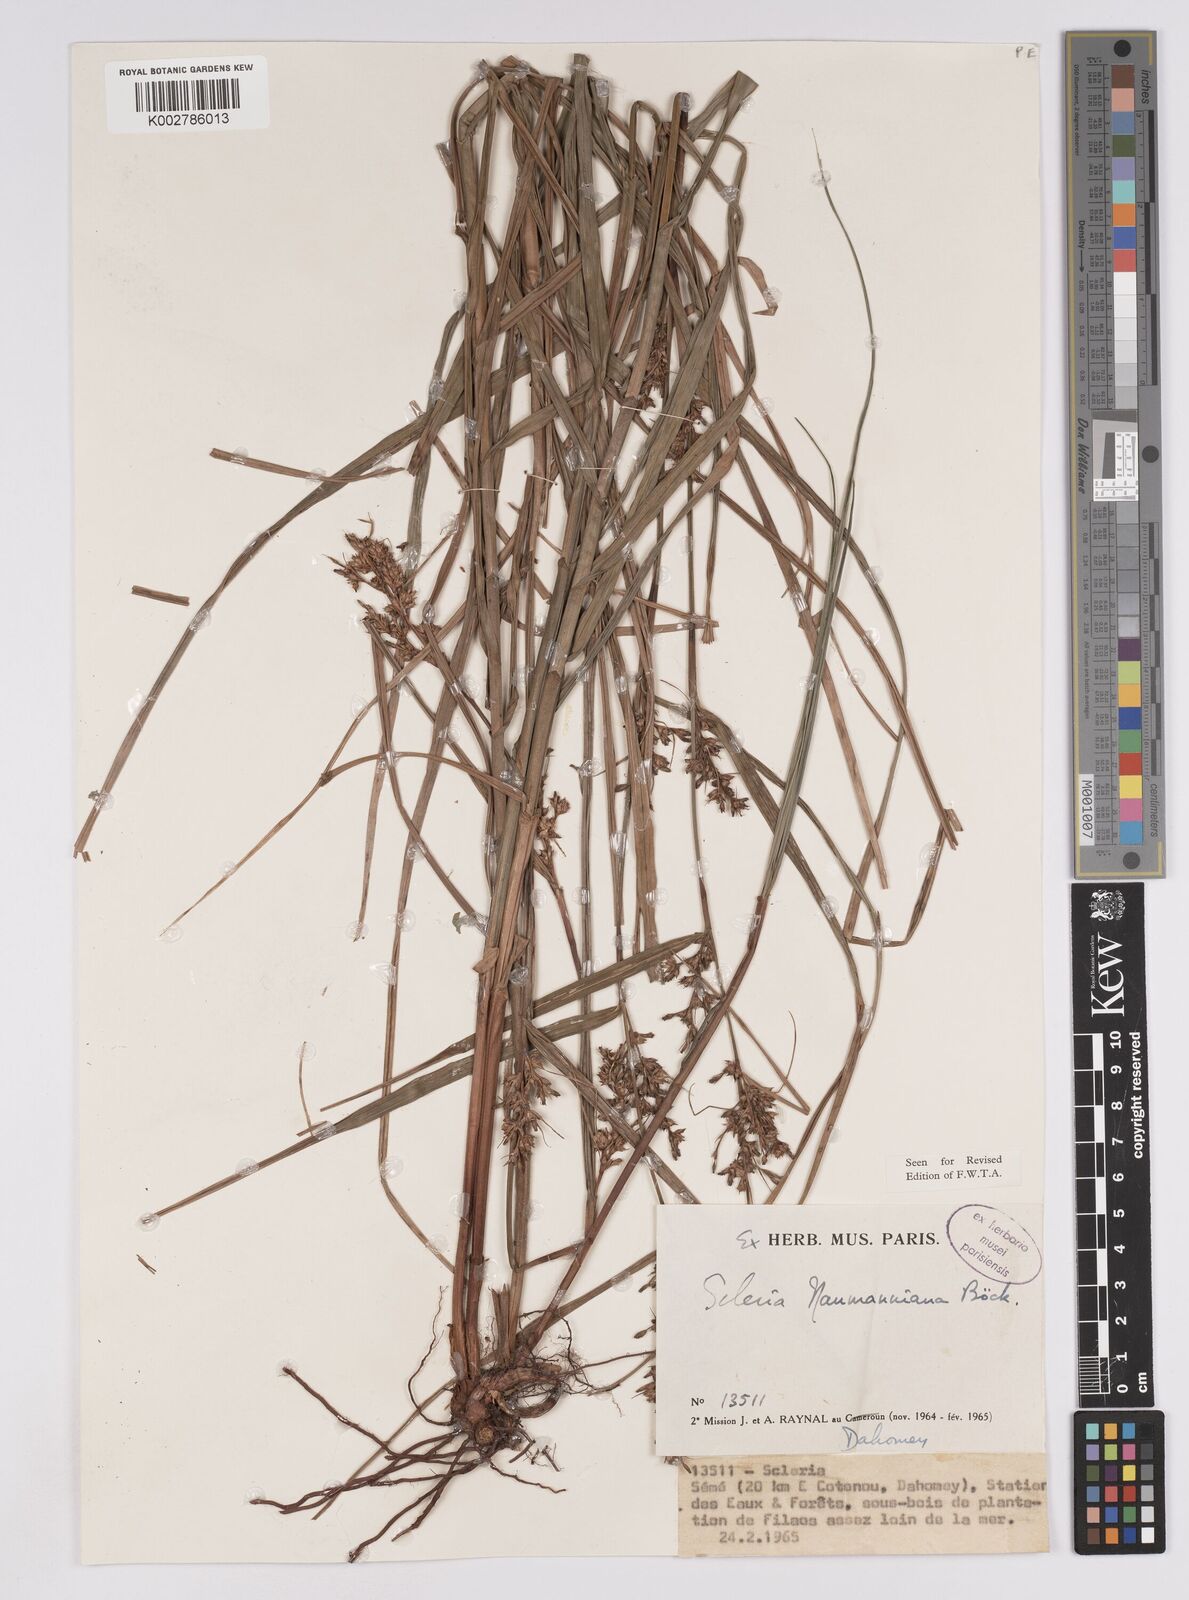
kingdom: Plantae
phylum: Tracheophyta
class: Liliopsida
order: Poales
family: Cyperaceae
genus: Scleria
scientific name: Scleria naumanniana
